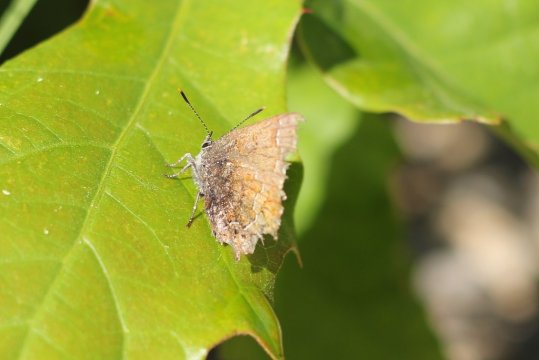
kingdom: Animalia
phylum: Arthropoda
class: Insecta
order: Lepidoptera
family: Lycaenidae
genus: Incisalia
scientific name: Incisalia niphon
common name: Eastern Pine Elfin
